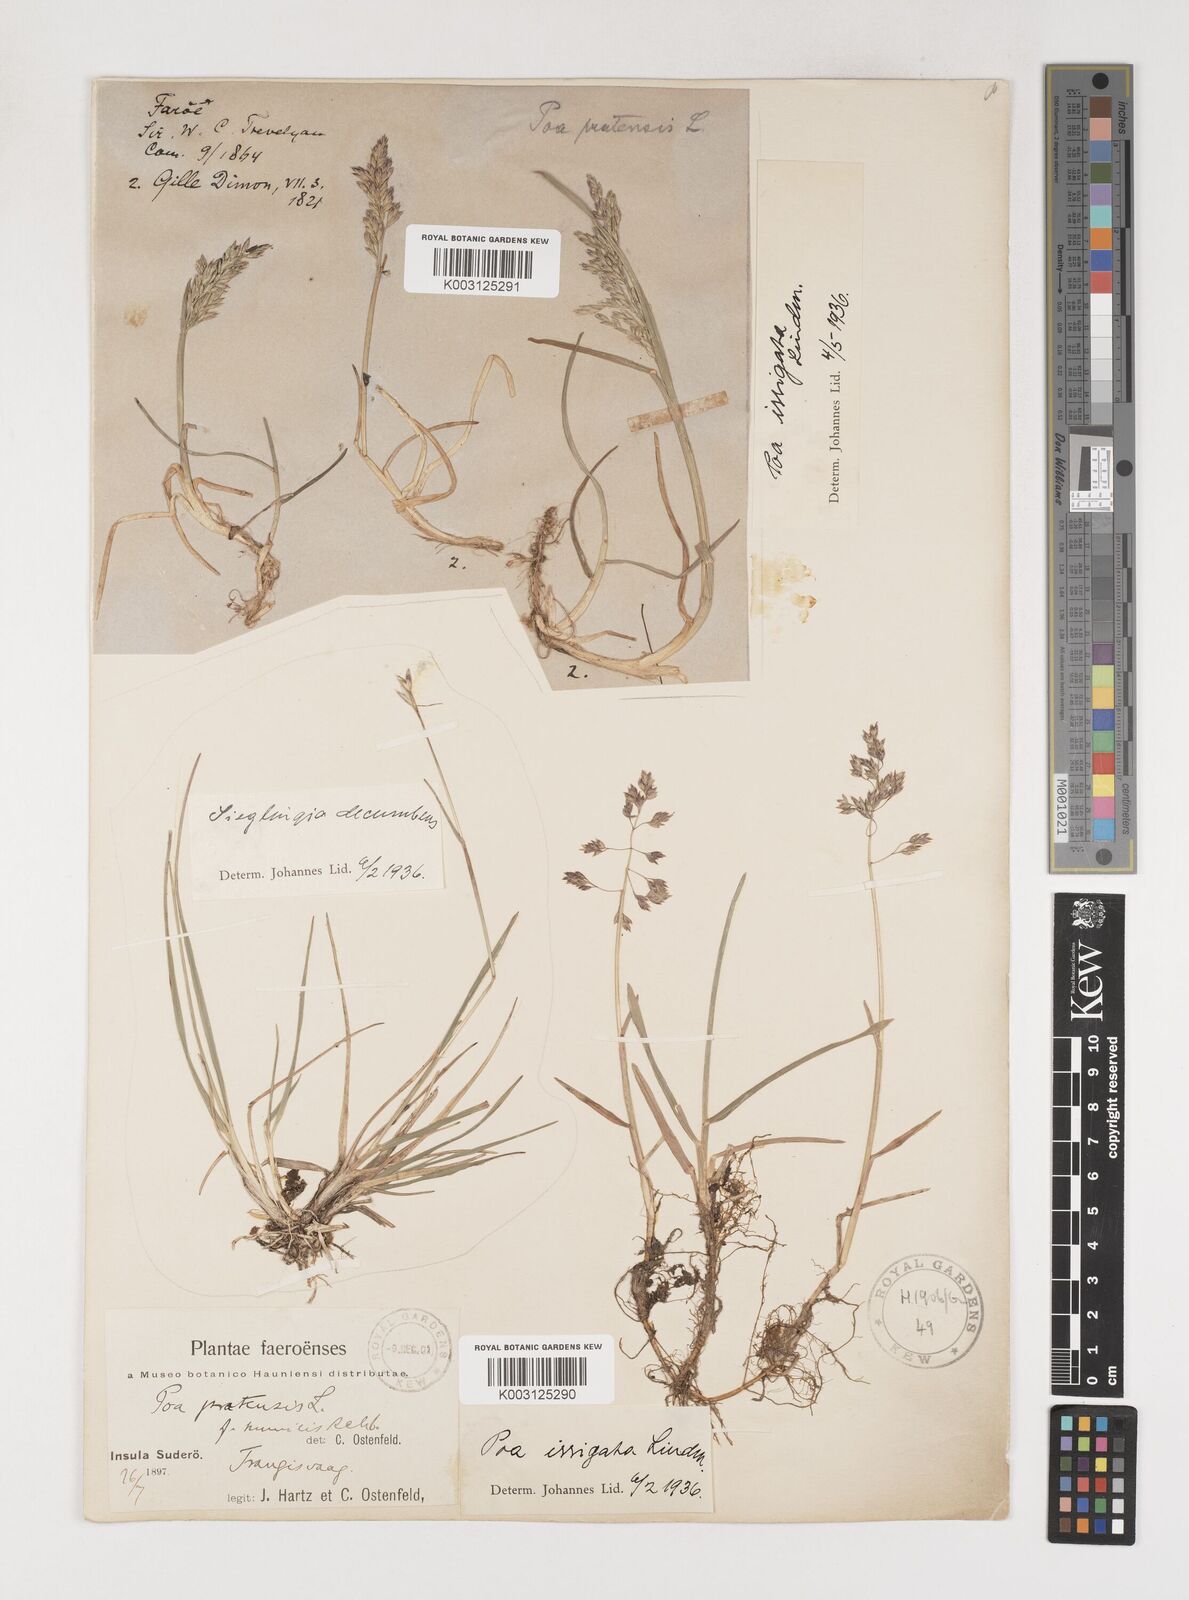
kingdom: Plantae
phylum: Tracheophyta
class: Liliopsida
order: Poales
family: Poaceae
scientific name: Poaceae
